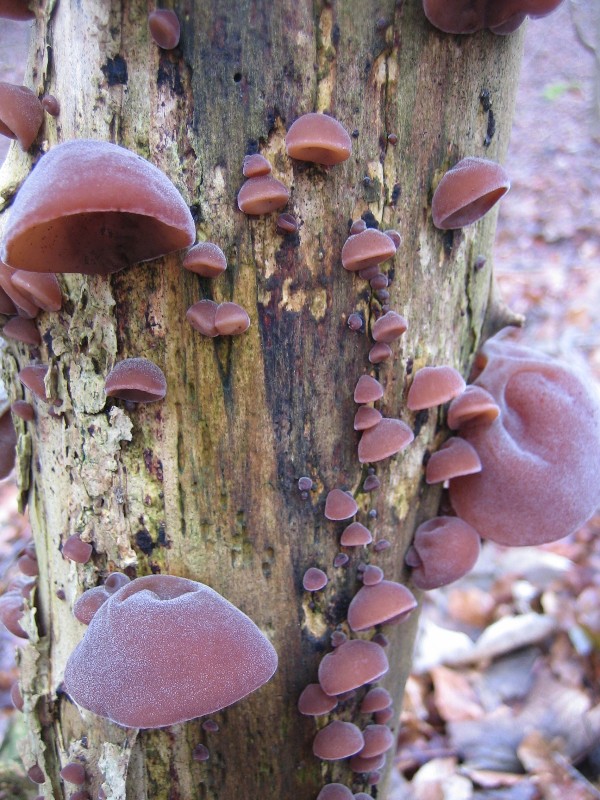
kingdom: Fungi
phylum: Basidiomycota
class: Agaricomycetes
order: Auriculariales
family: Auriculariaceae
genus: Auricularia
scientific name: Auricularia auricula-judae
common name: almindelig judasøre
